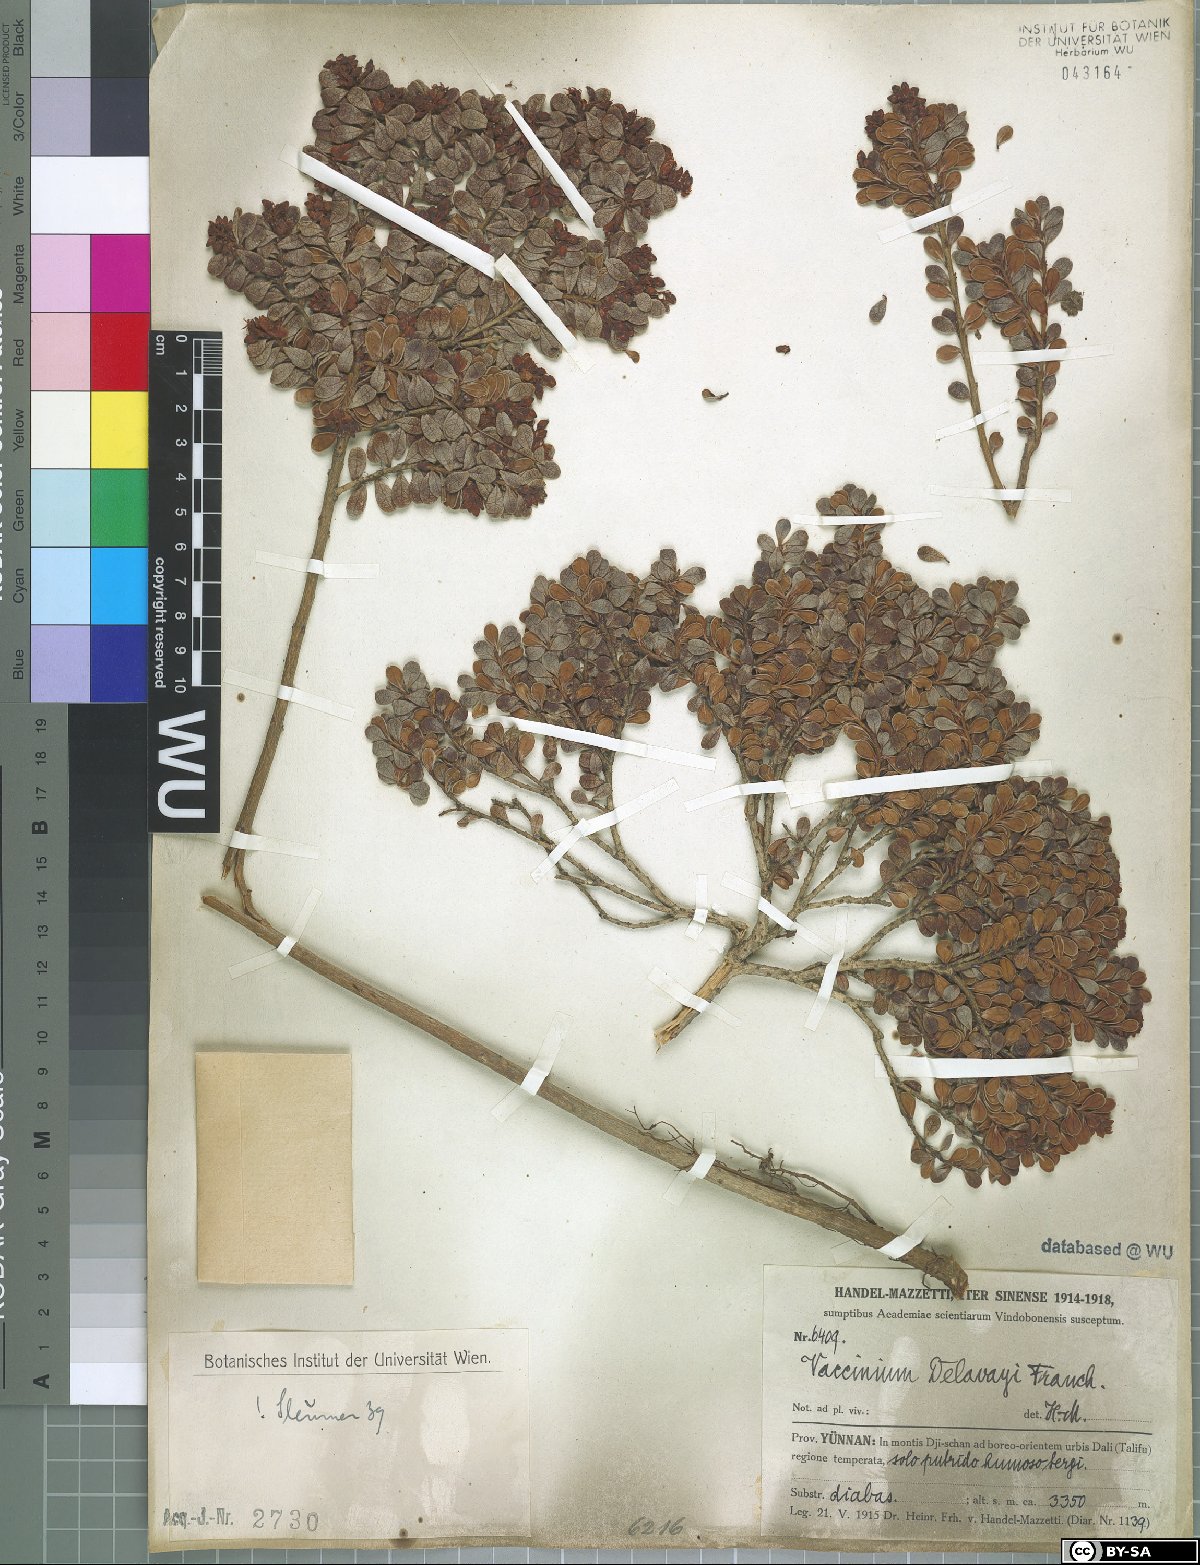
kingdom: Plantae
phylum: Tracheophyta
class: Magnoliopsida
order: Ericales
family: Ericaceae
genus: Vaccinium
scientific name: Vaccinium delavayi
